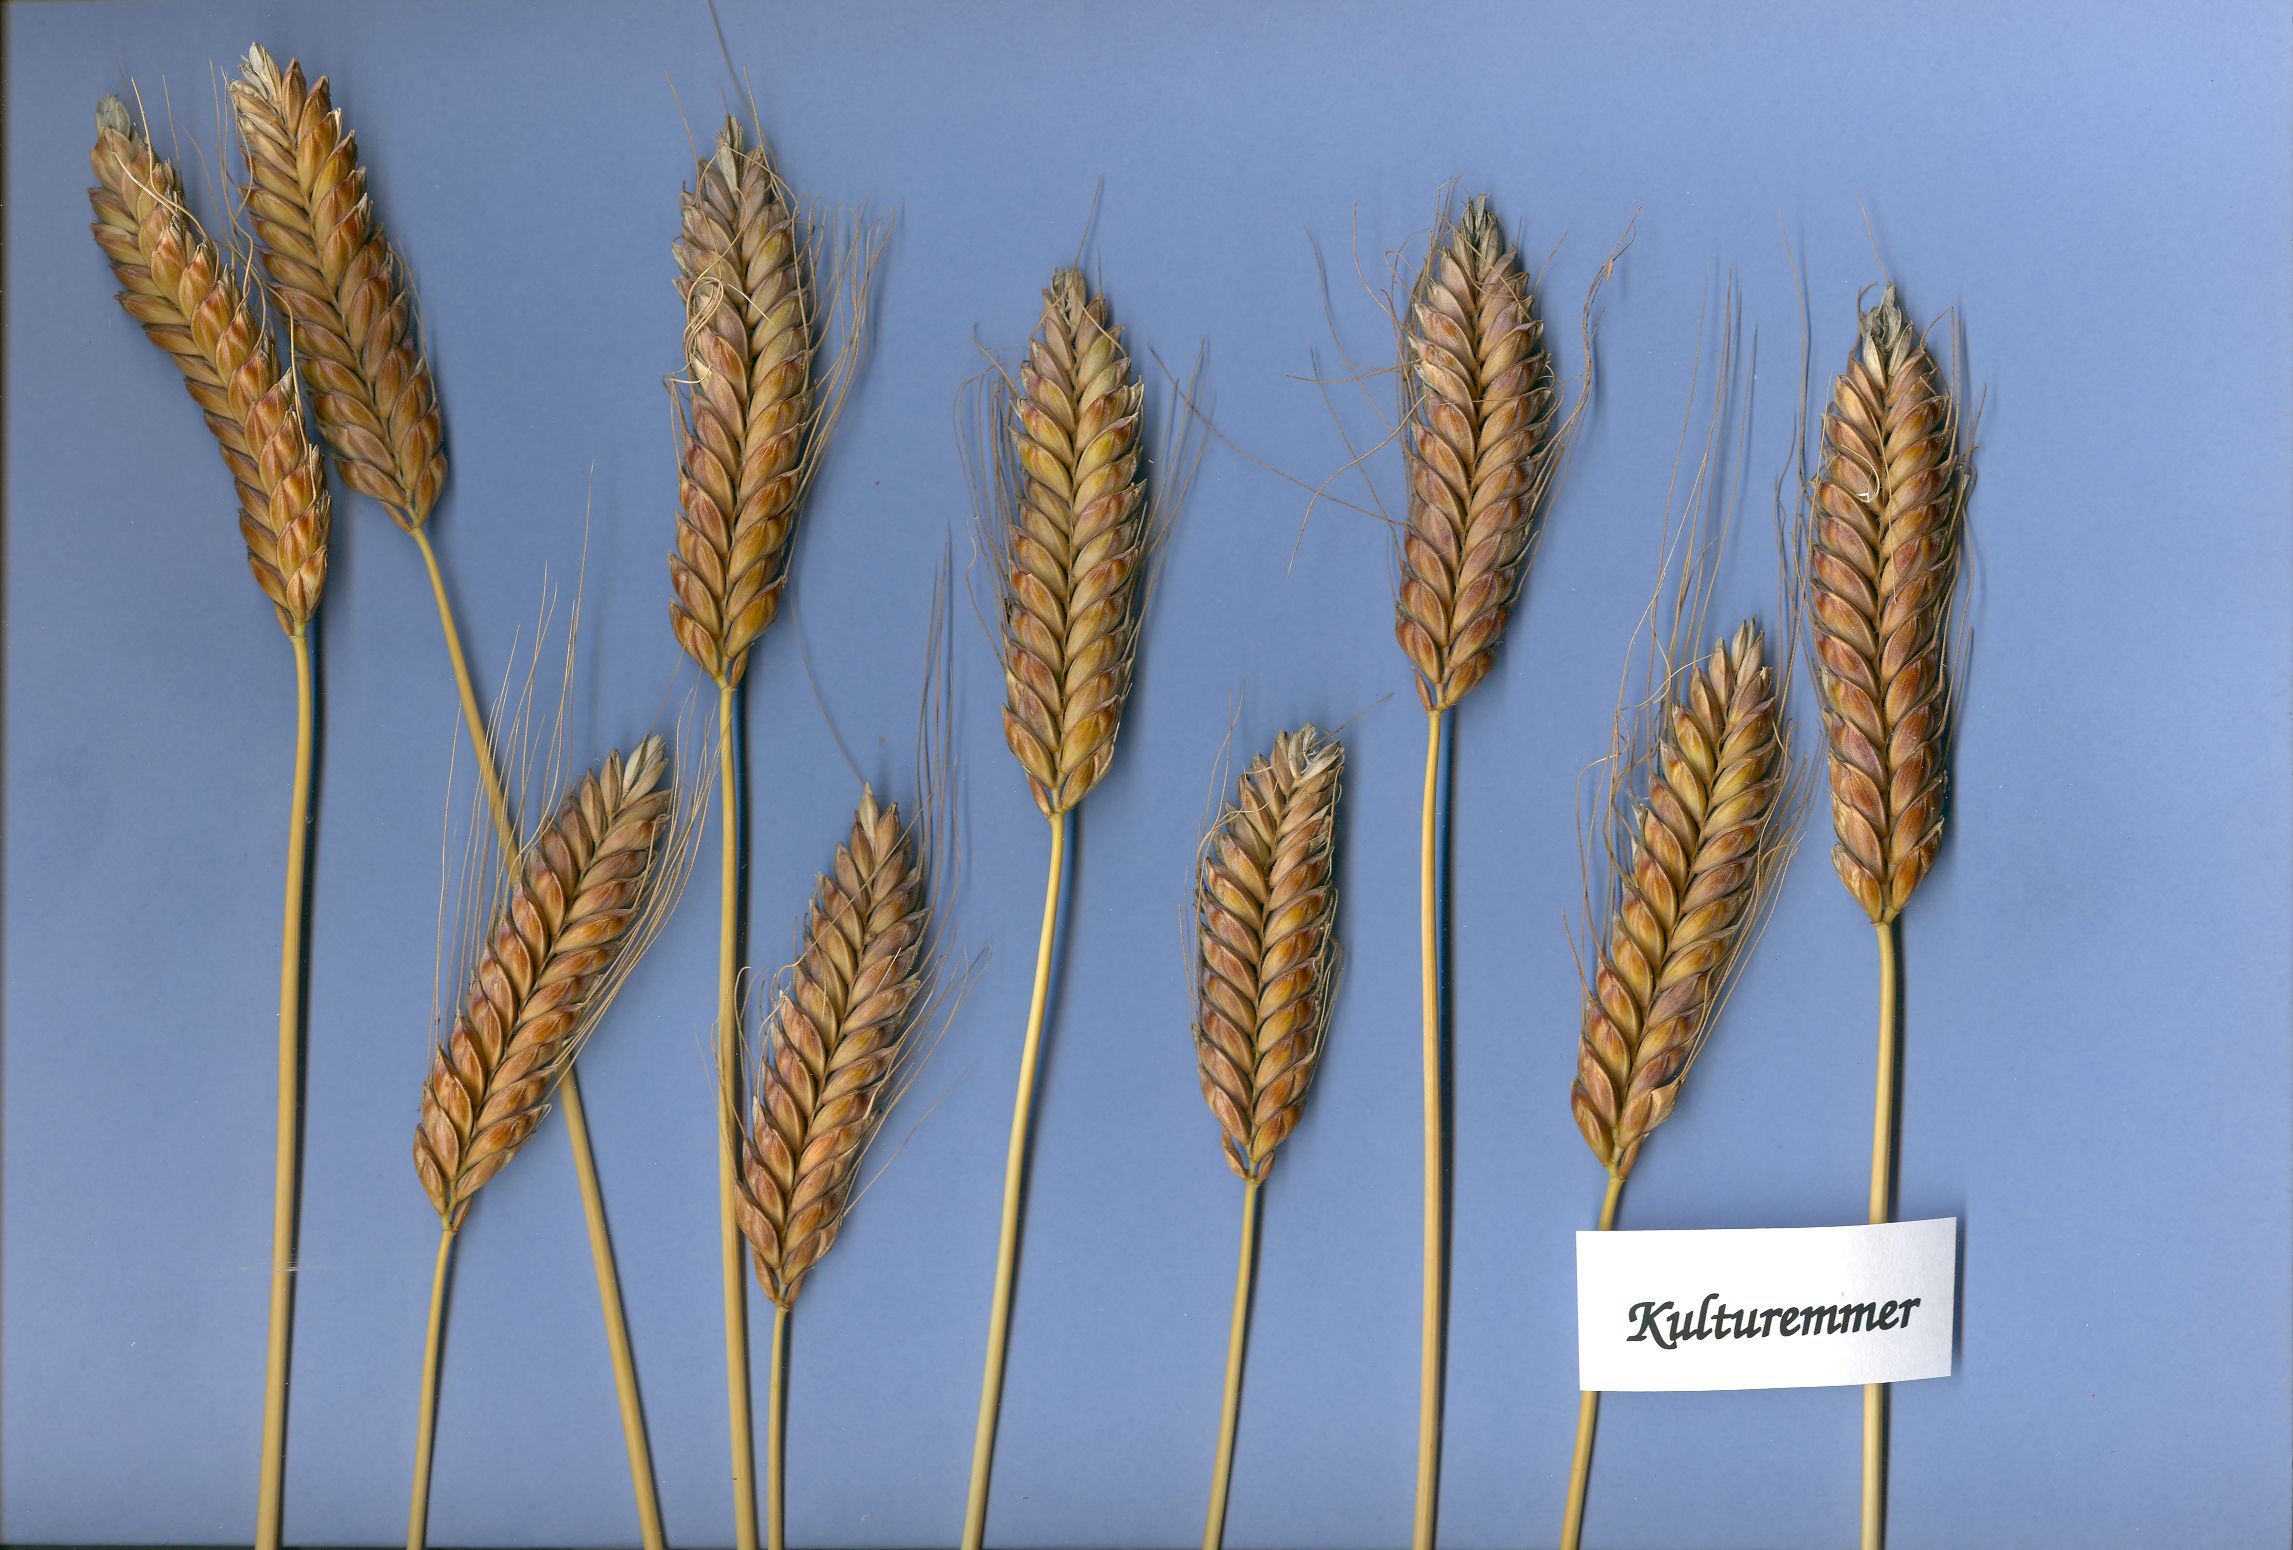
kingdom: Plantae
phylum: Tracheophyta
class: Liliopsida
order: Poales
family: Poaceae
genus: Triticum
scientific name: Triticum turgidum
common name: Rivet wheat
